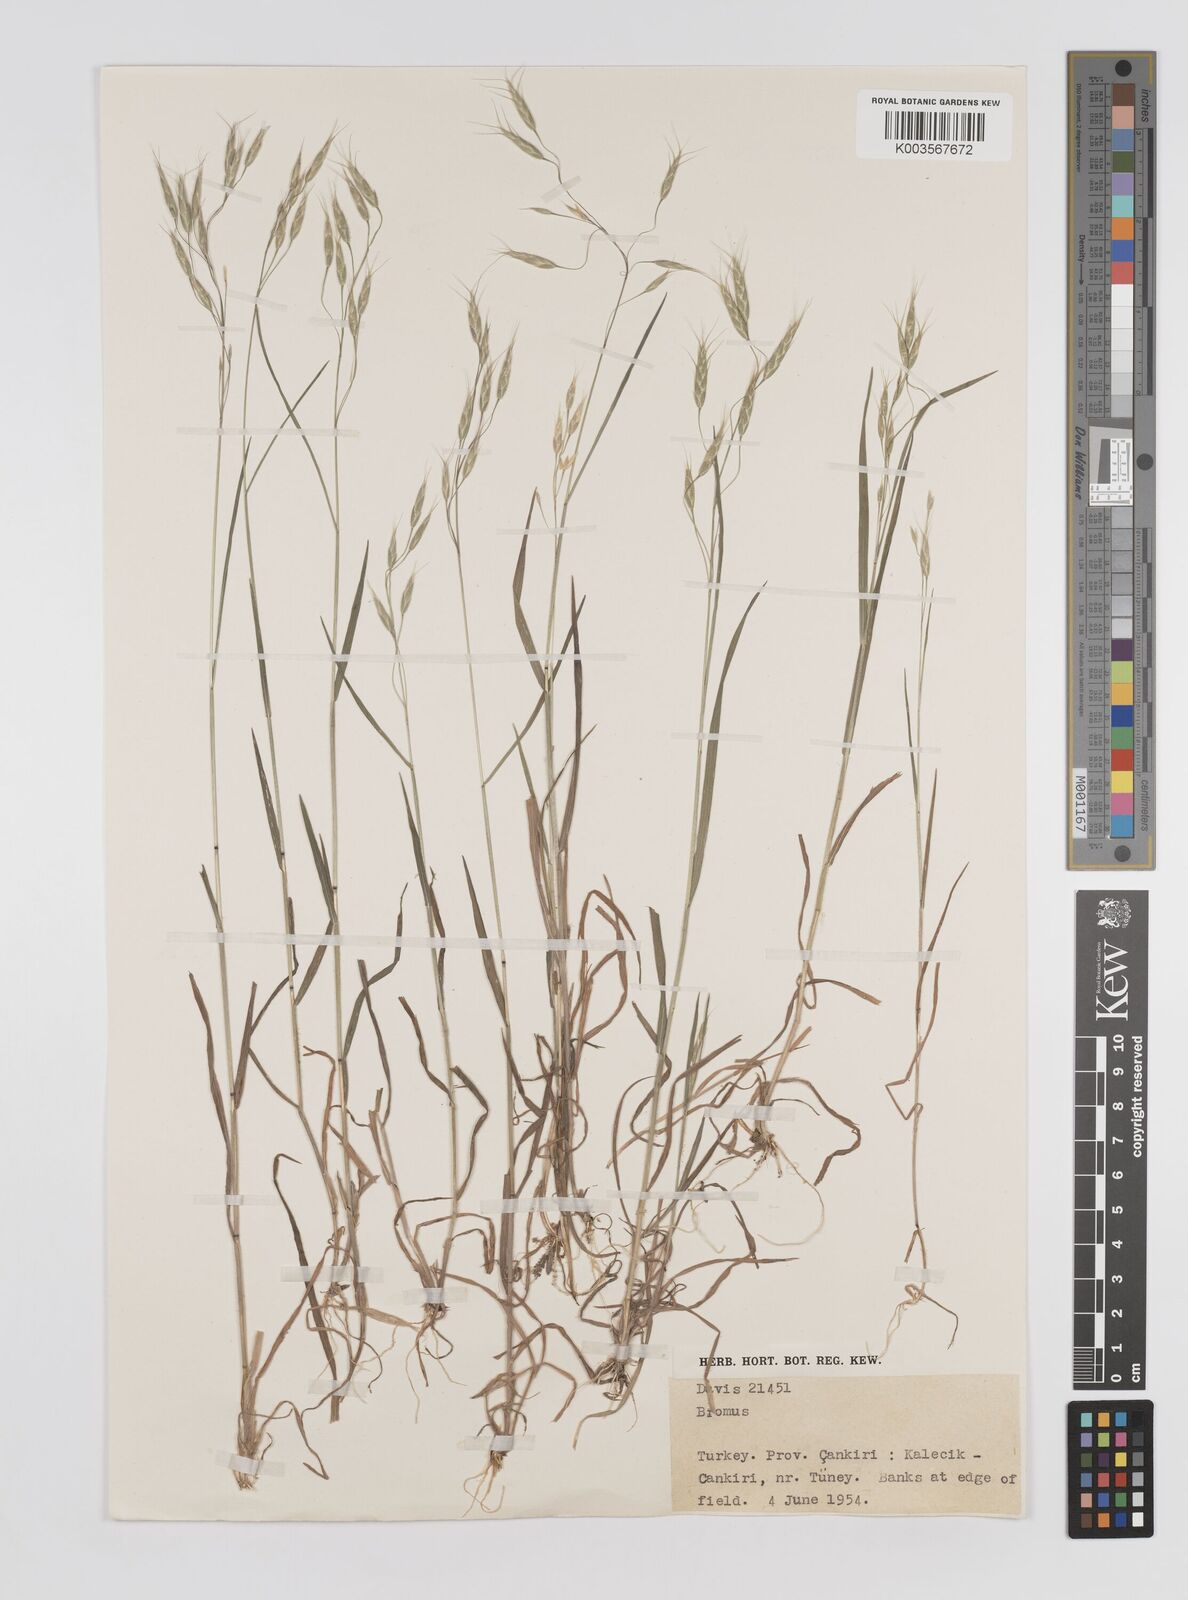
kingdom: Plantae
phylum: Tracheophyta
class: Liliopsida
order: Poales
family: Poaceae
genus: Bromus
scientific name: Bromus
